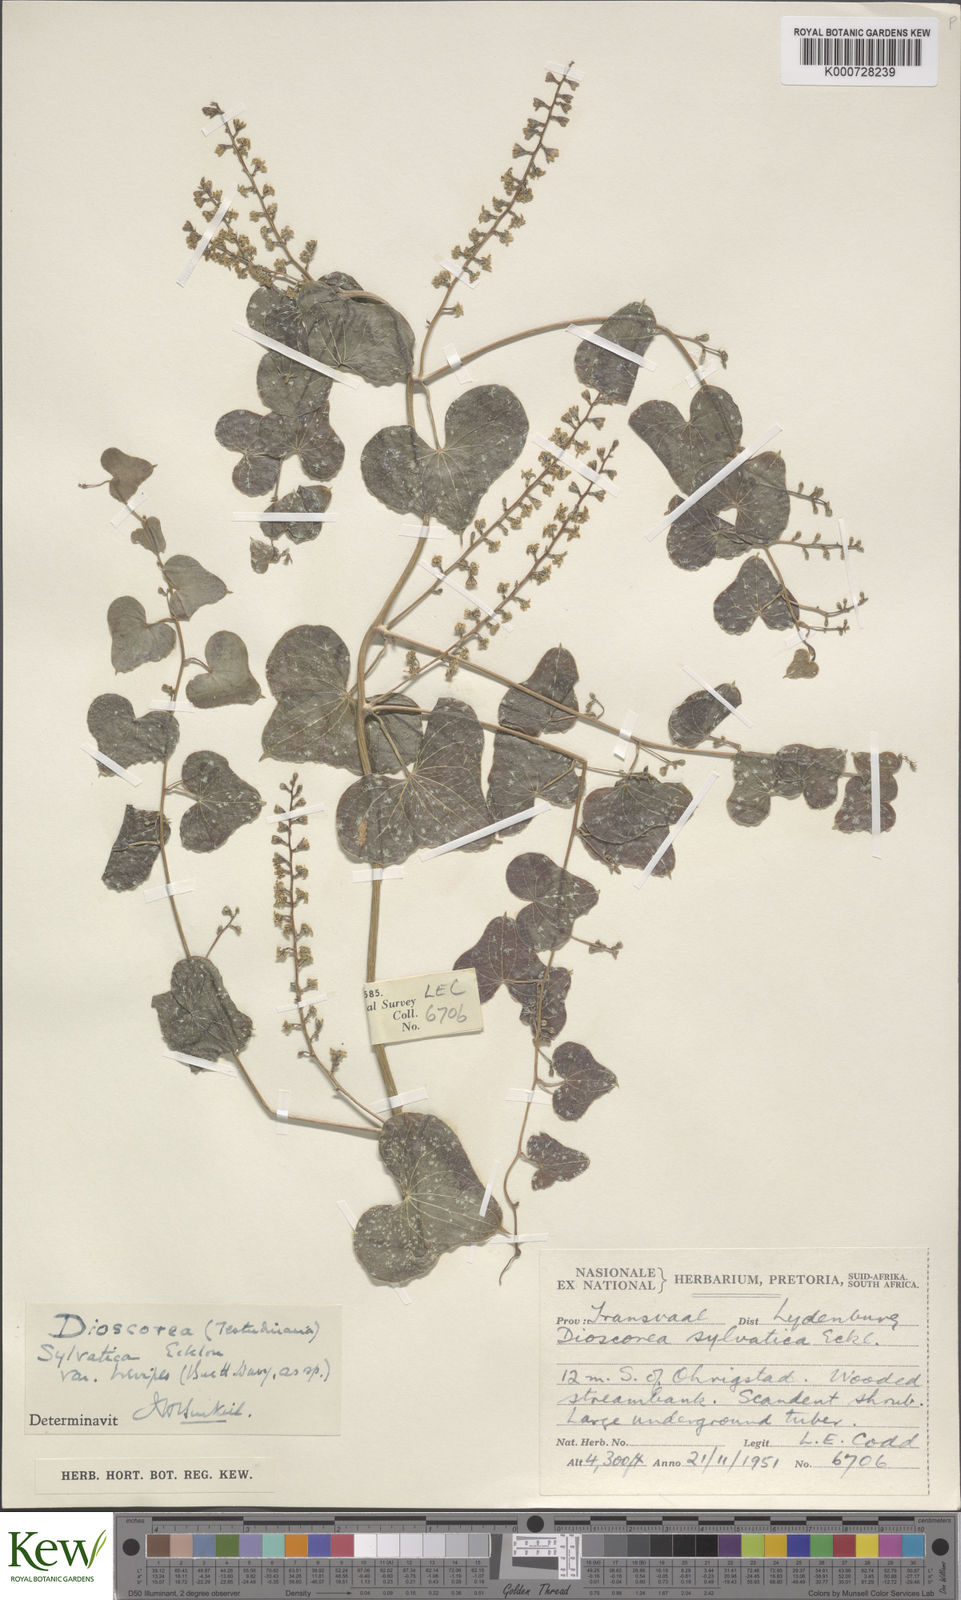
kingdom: Plantae
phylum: Tracheophyta
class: Liliopsida
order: Dioscoreales
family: Dioscoreaceae
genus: Dioscorea
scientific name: Dioscorea sylvatica
